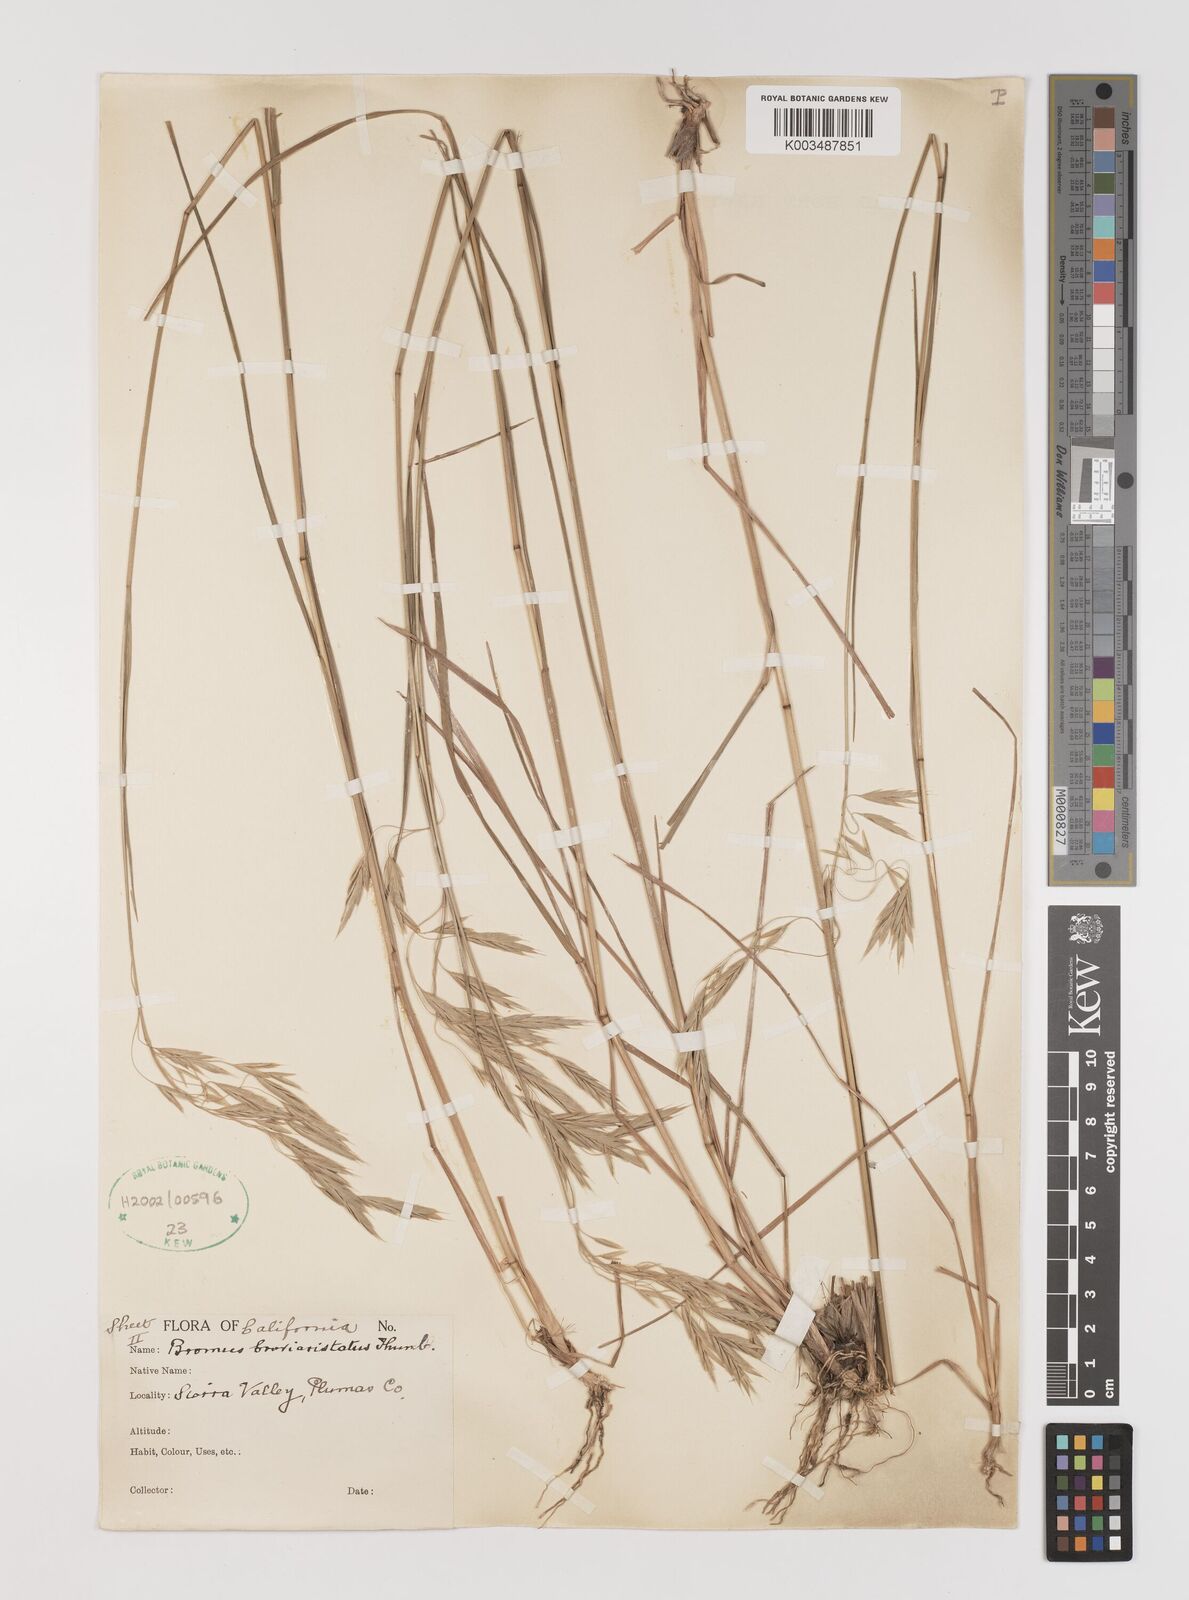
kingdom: Plantae
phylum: Tracheophyta
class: Liliopsida
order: Poales
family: Poaceae
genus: Bromus
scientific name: Bromus catharticus
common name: Rescuegrass
